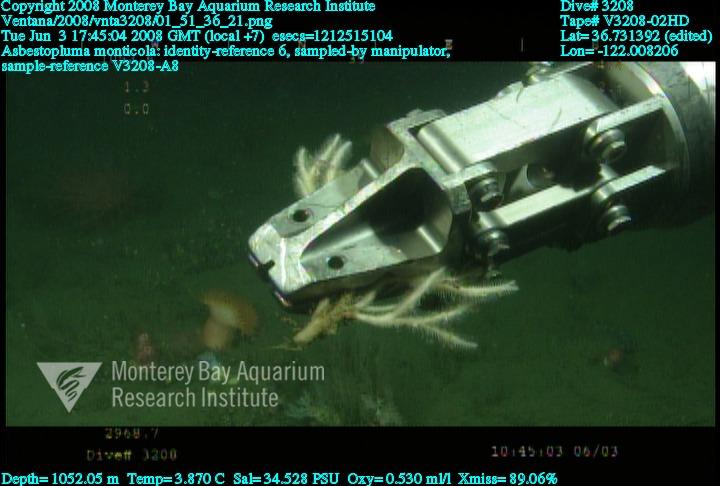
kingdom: Animalia
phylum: Porifera
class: Demospongiae
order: Poecilosclerida
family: Cladorhizidae
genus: Asbestopluma
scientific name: Asbestopluma monticola
